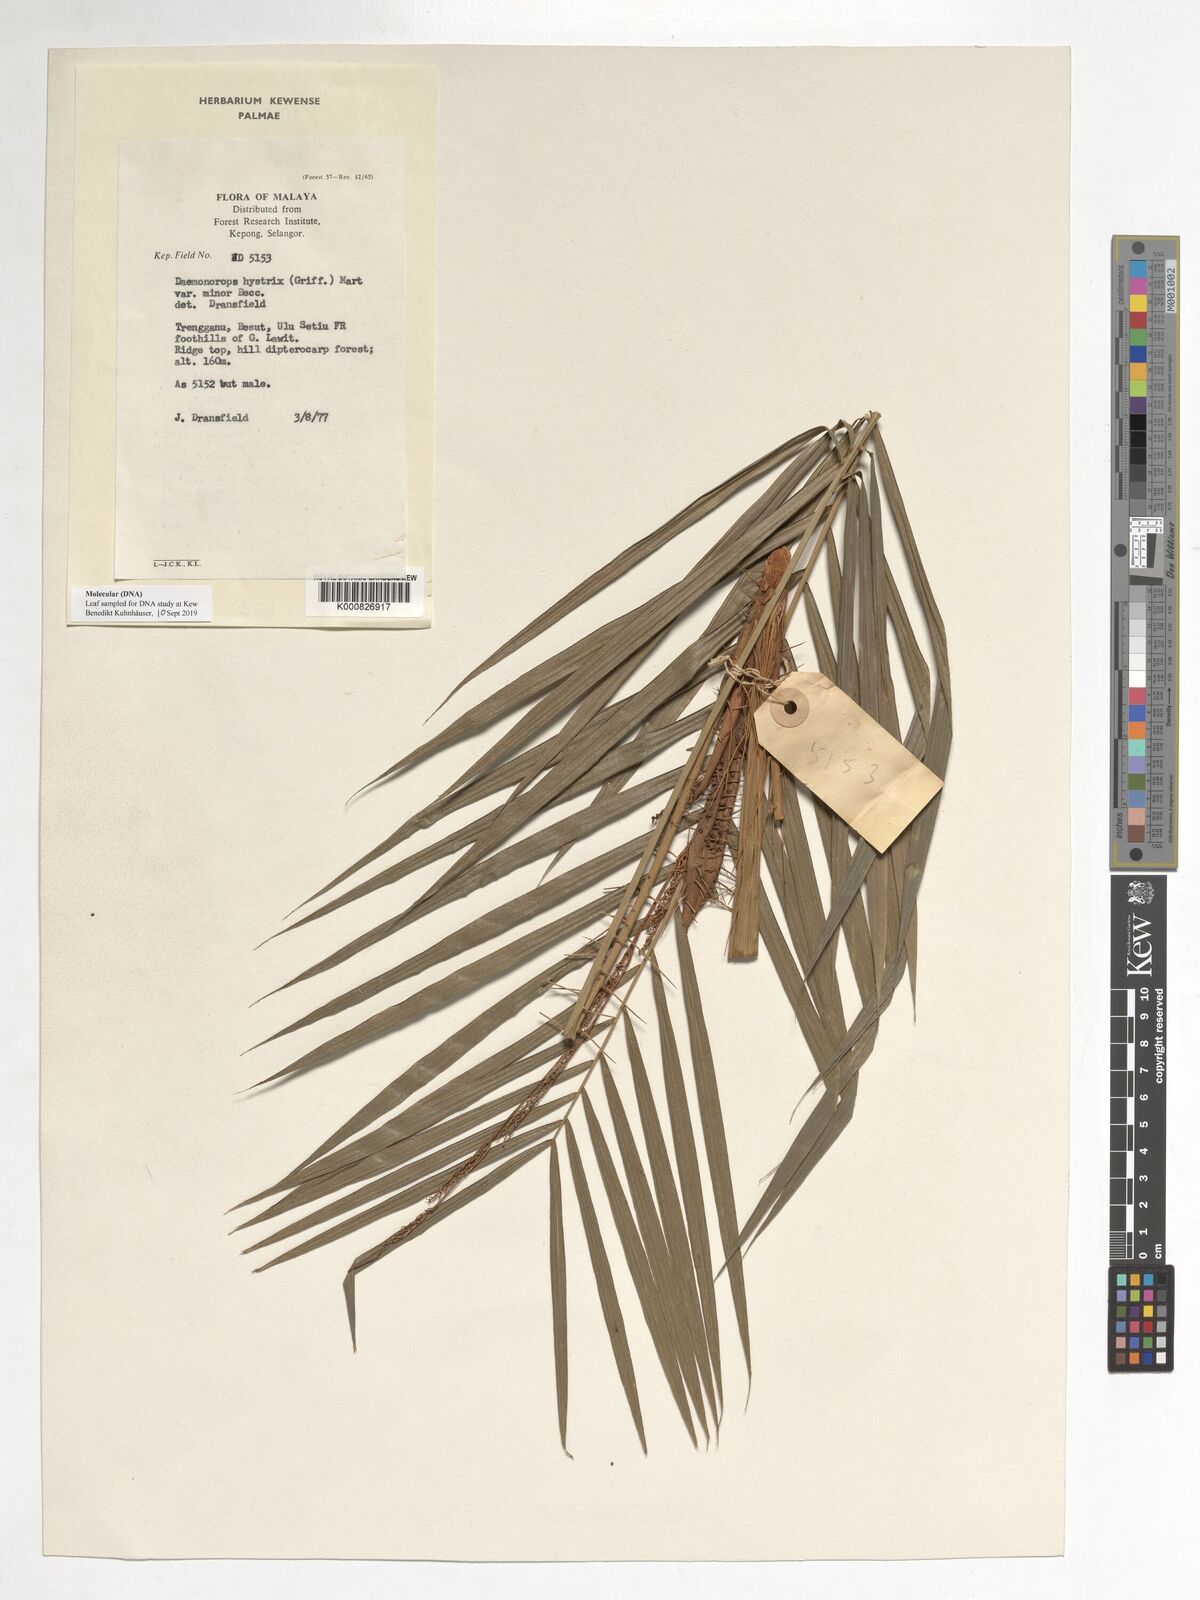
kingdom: Plantae
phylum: Tracheophyta
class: Liliopsida
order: Arecales
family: Arecaceae
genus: Calamus
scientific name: Calamus
